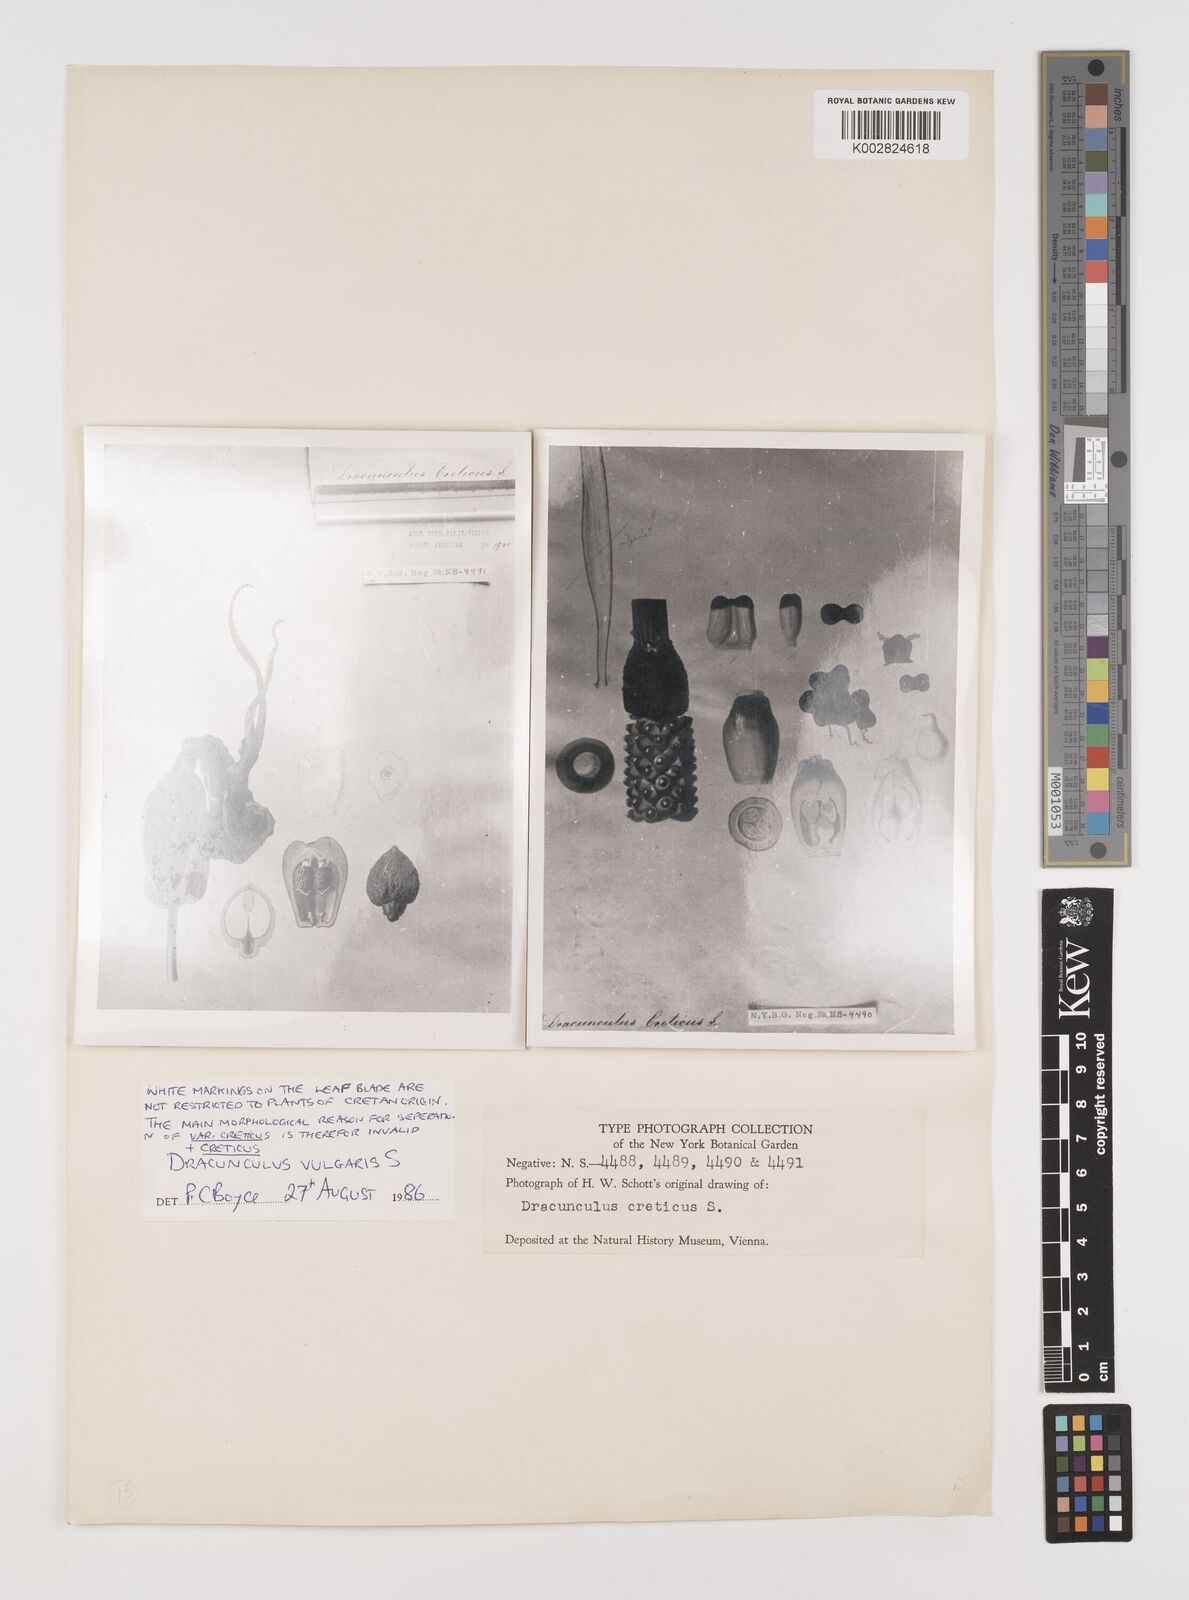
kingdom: Plantae
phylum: Tracheophyta
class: Liliopsida
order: Alismatales
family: Araceae
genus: Dracunculus
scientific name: Dracunculus vulgaris
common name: Dragon arum
